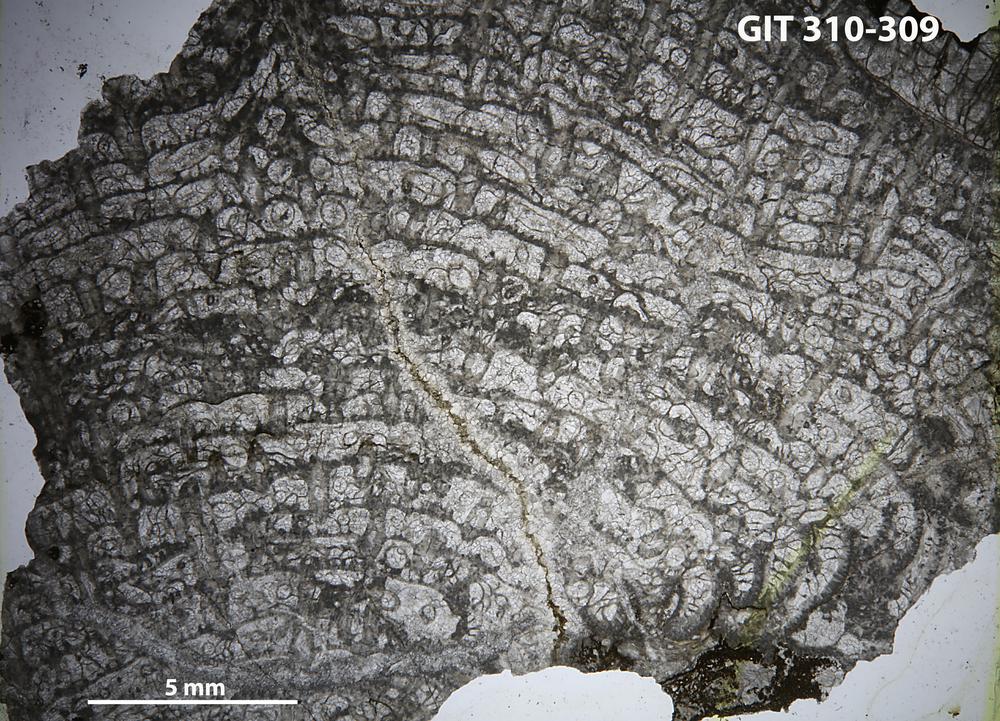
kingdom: Animalia
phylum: Porifera
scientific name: Porifera
